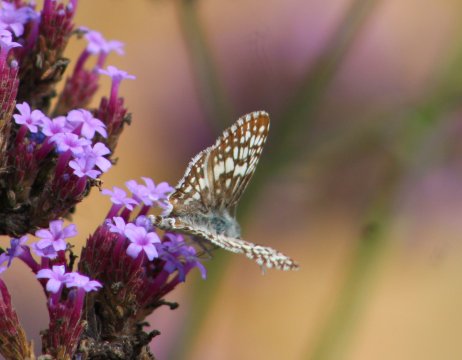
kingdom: Animalia
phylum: Arthropoda
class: Insecta
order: Lepidoptera
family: Hesperiidae
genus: Burnsius
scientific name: Burnsius
